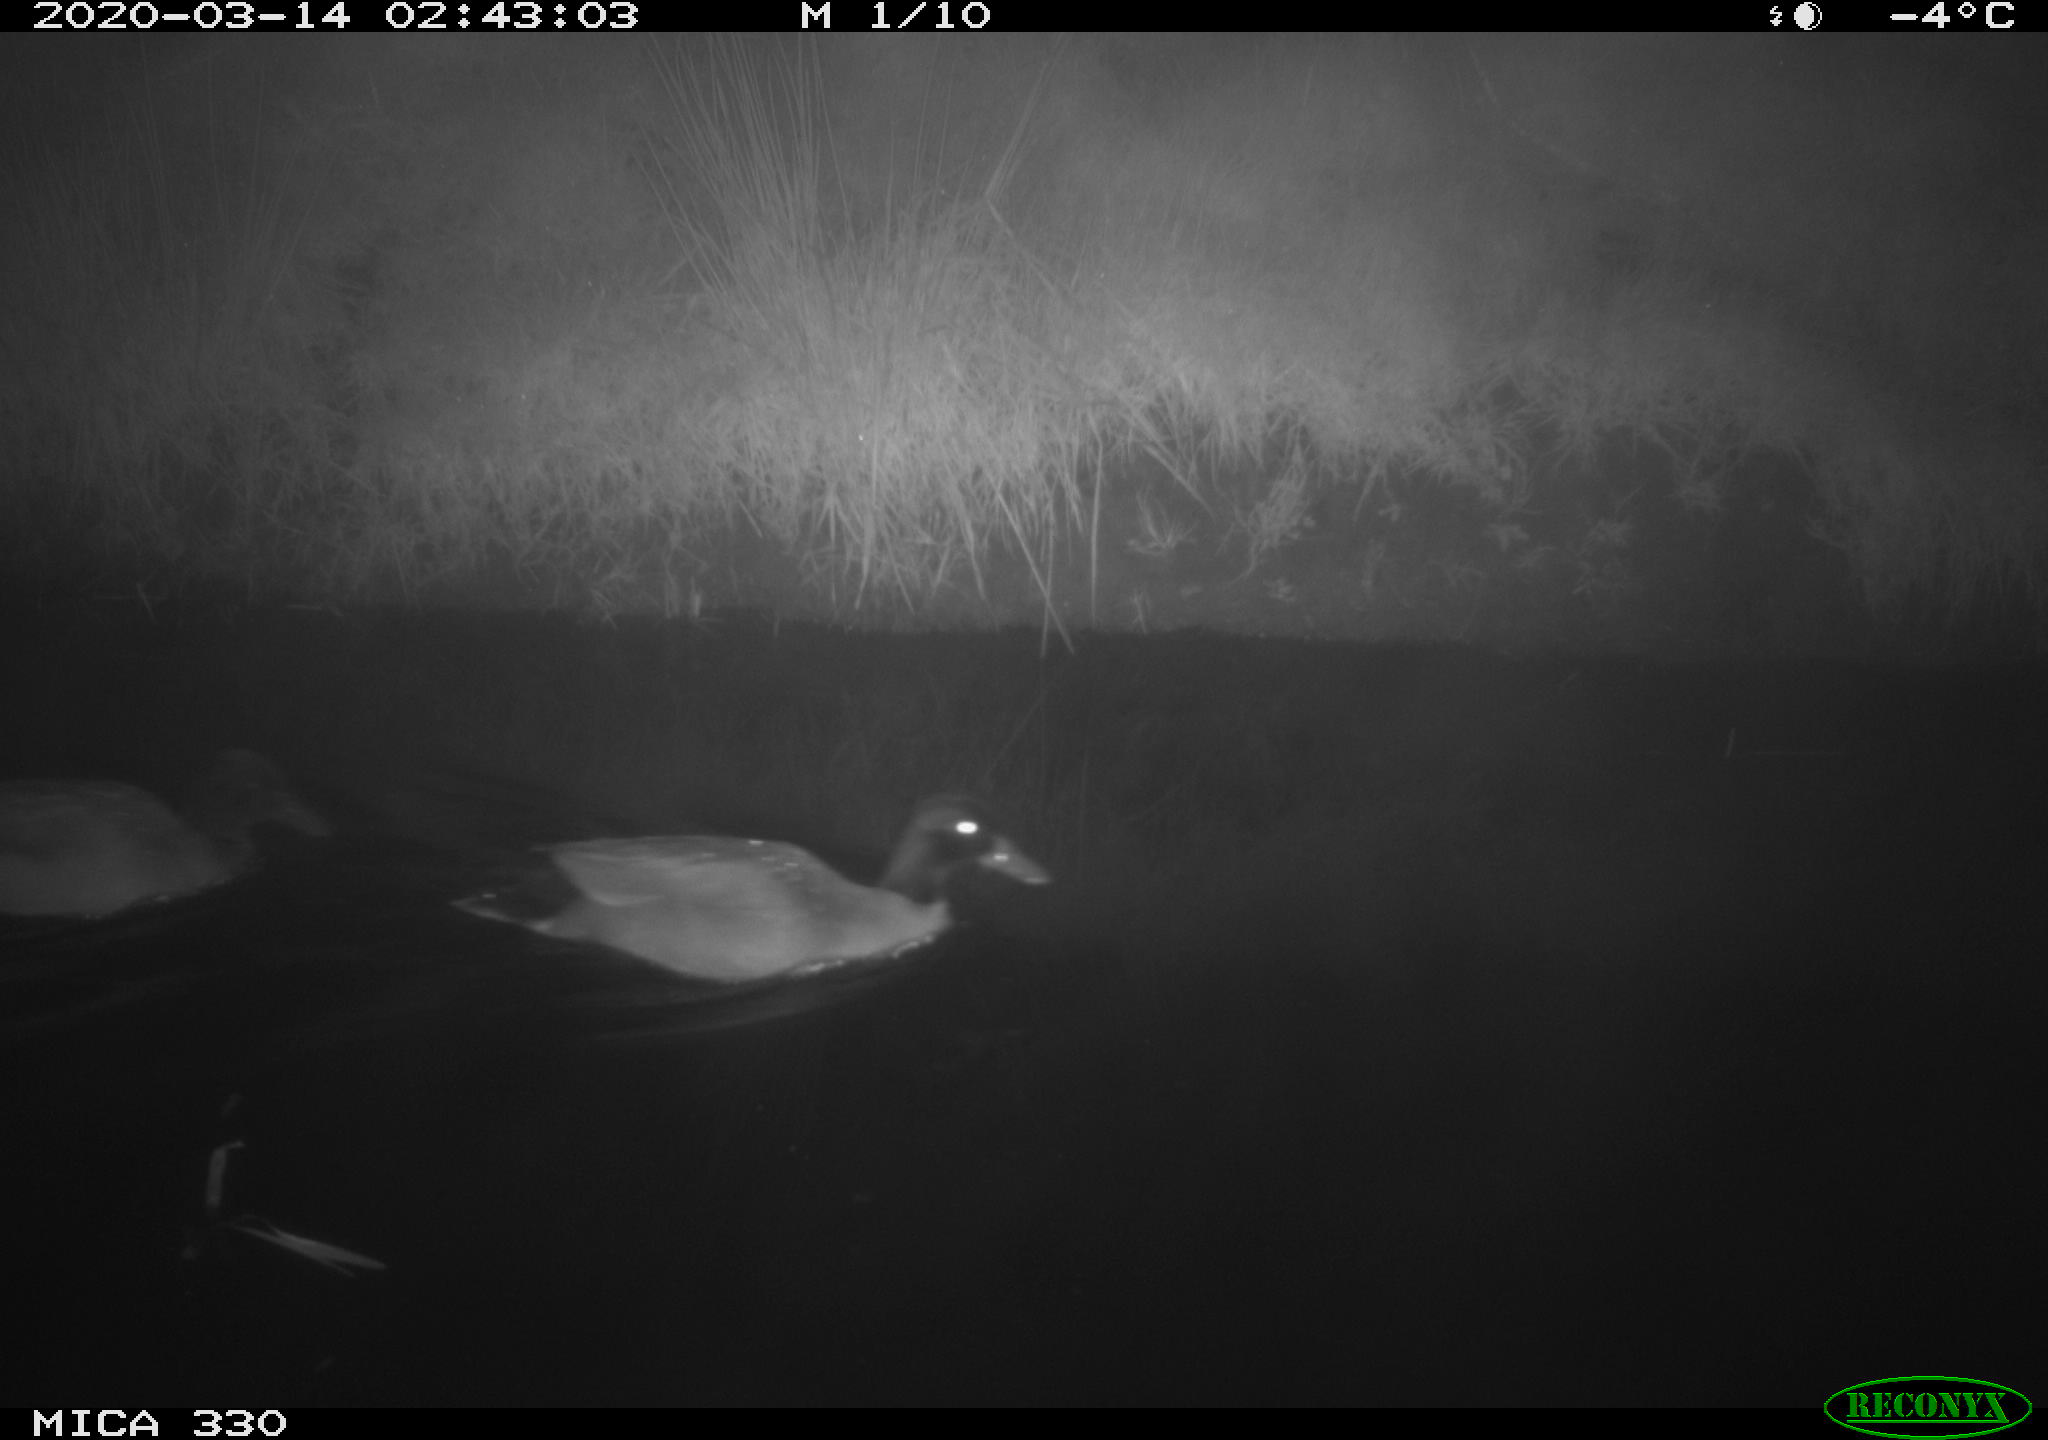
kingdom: Animalia
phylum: Chordata
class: Aves
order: Anseriformes
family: Anatidae
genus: Anas
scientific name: Anas platyrhynchos
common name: Mallard
